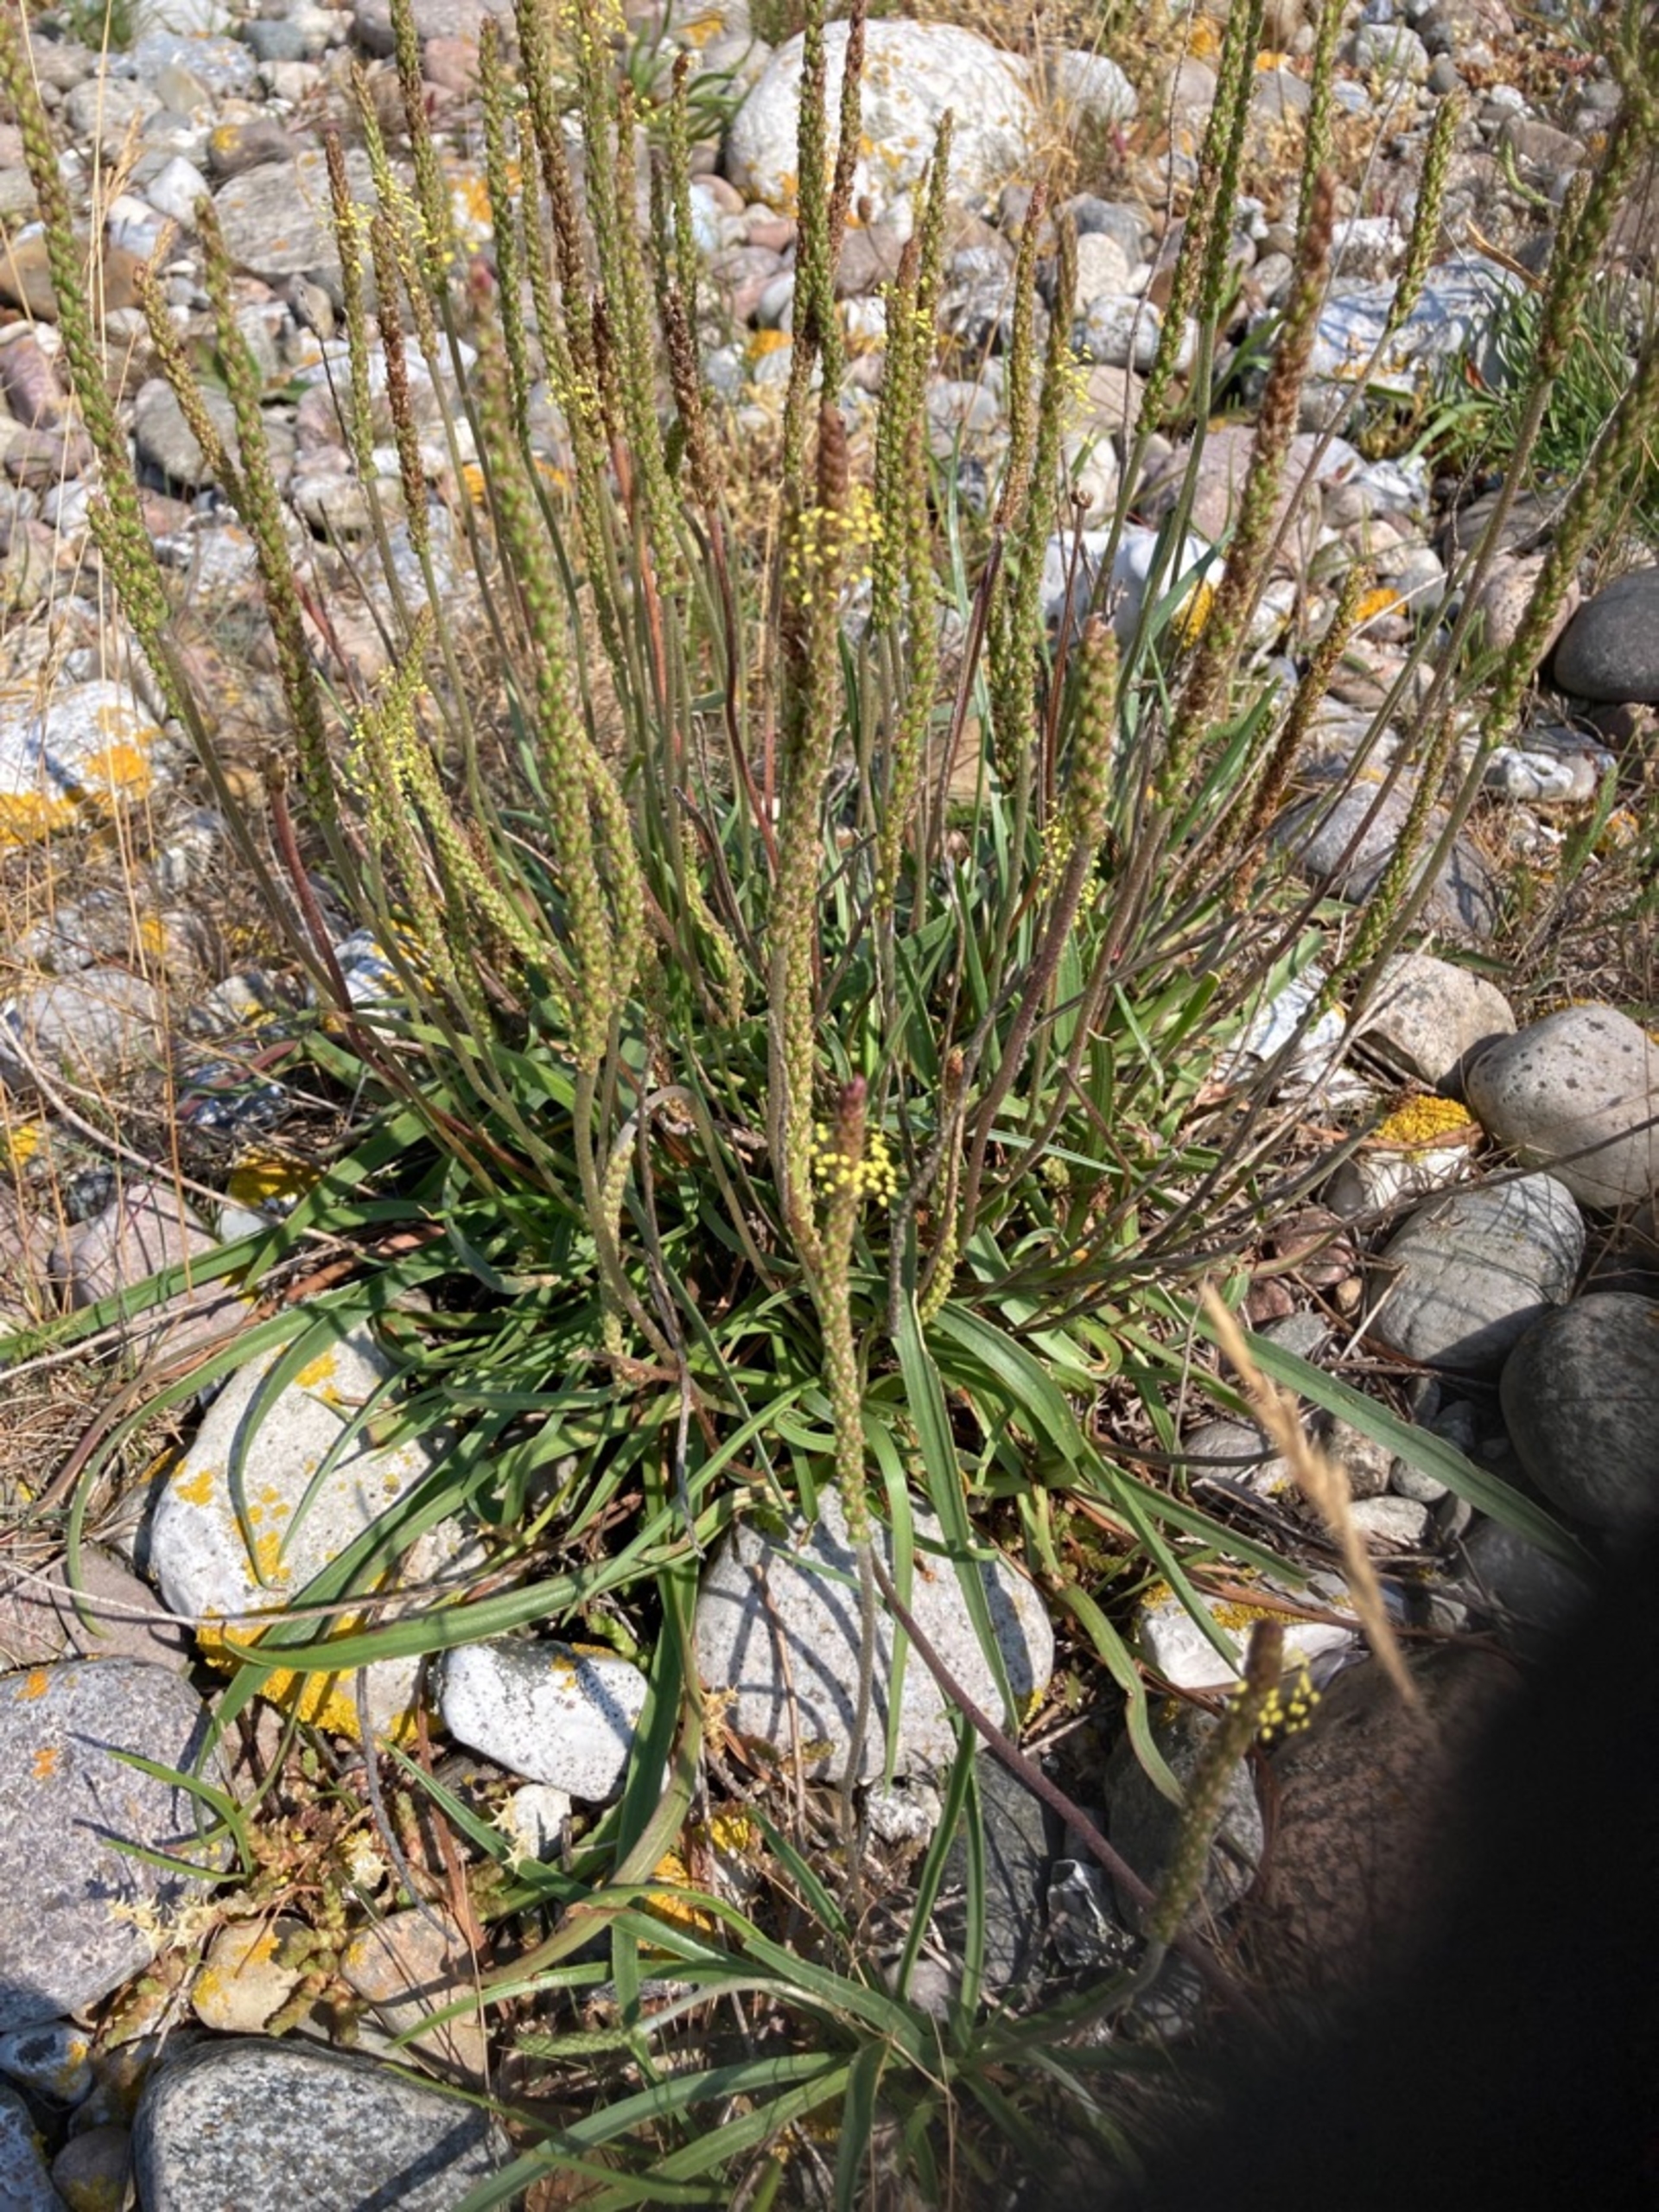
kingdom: Plantae
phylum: Tracheophyta
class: Magnoliopsida
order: Lamiales
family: Plantaginaceae
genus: Plantago
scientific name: Plantago maritima
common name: Strand-vejbred
